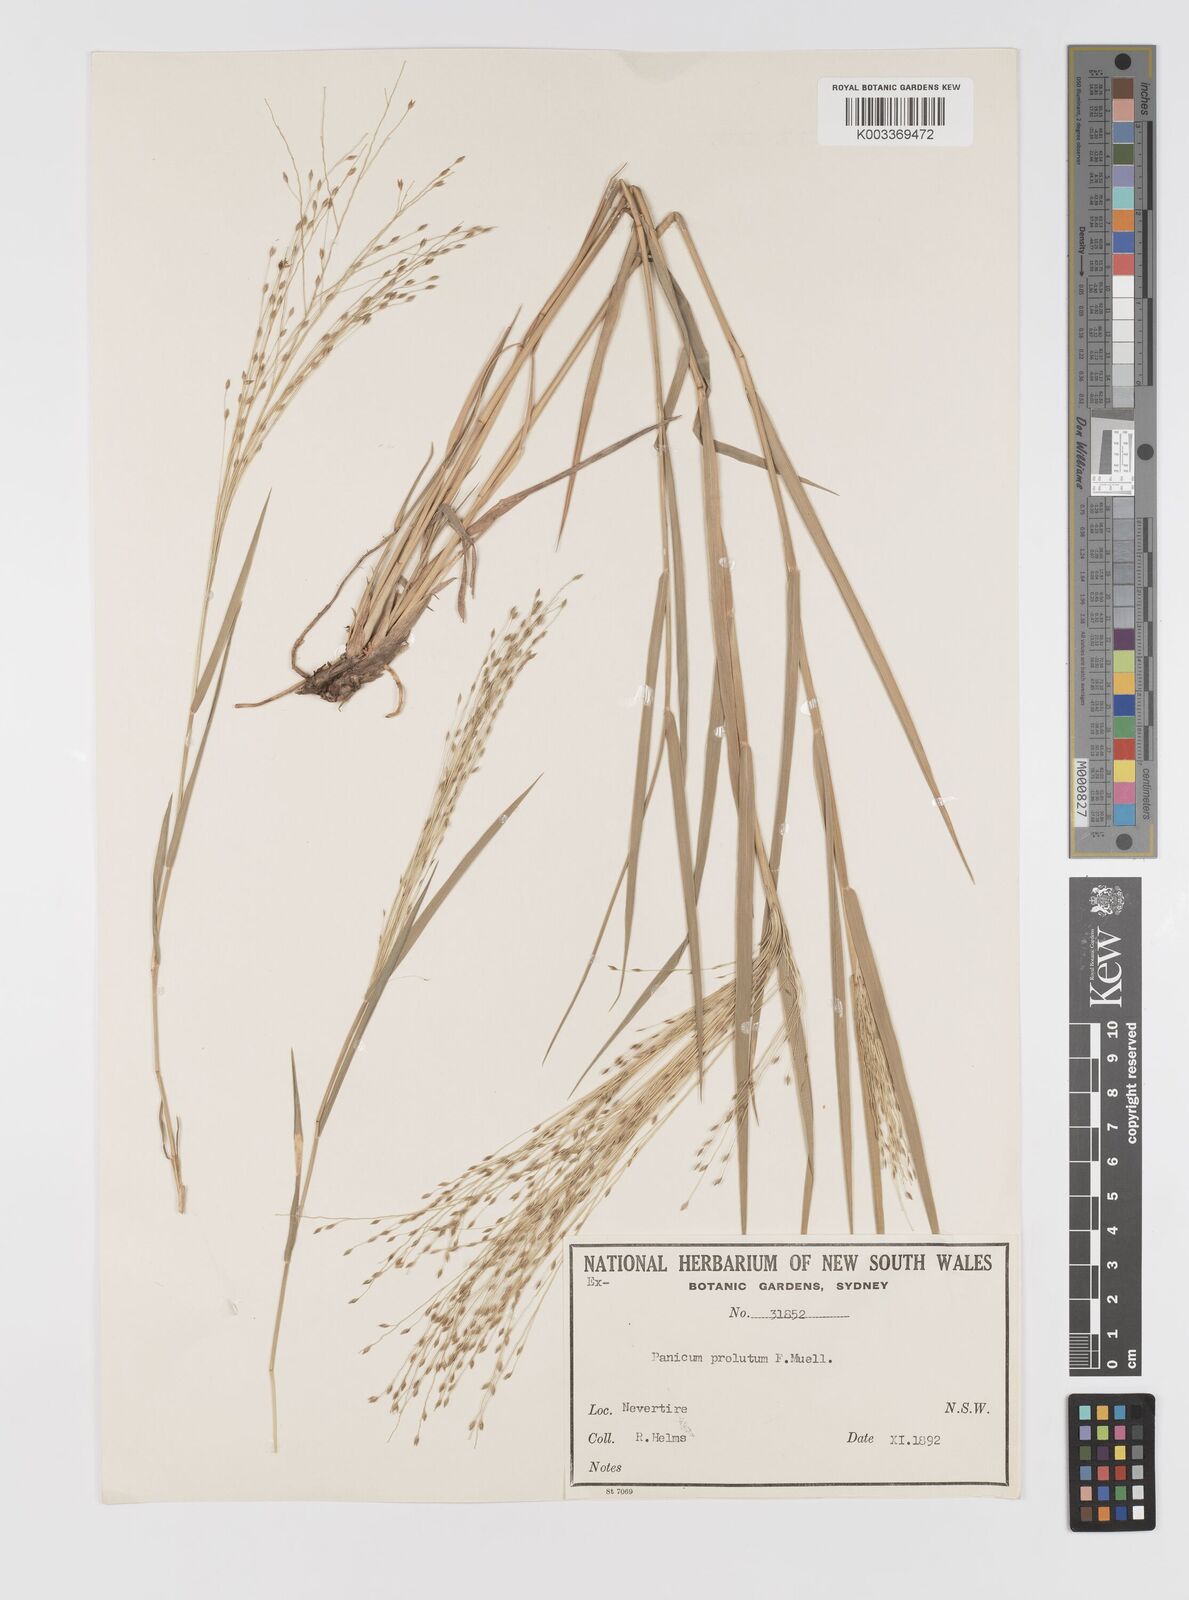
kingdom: Plantae
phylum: Tracheophyta
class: Liliopsida
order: Poales
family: Poaceae
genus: Walwhalleya
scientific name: Walwhalleya proluta
